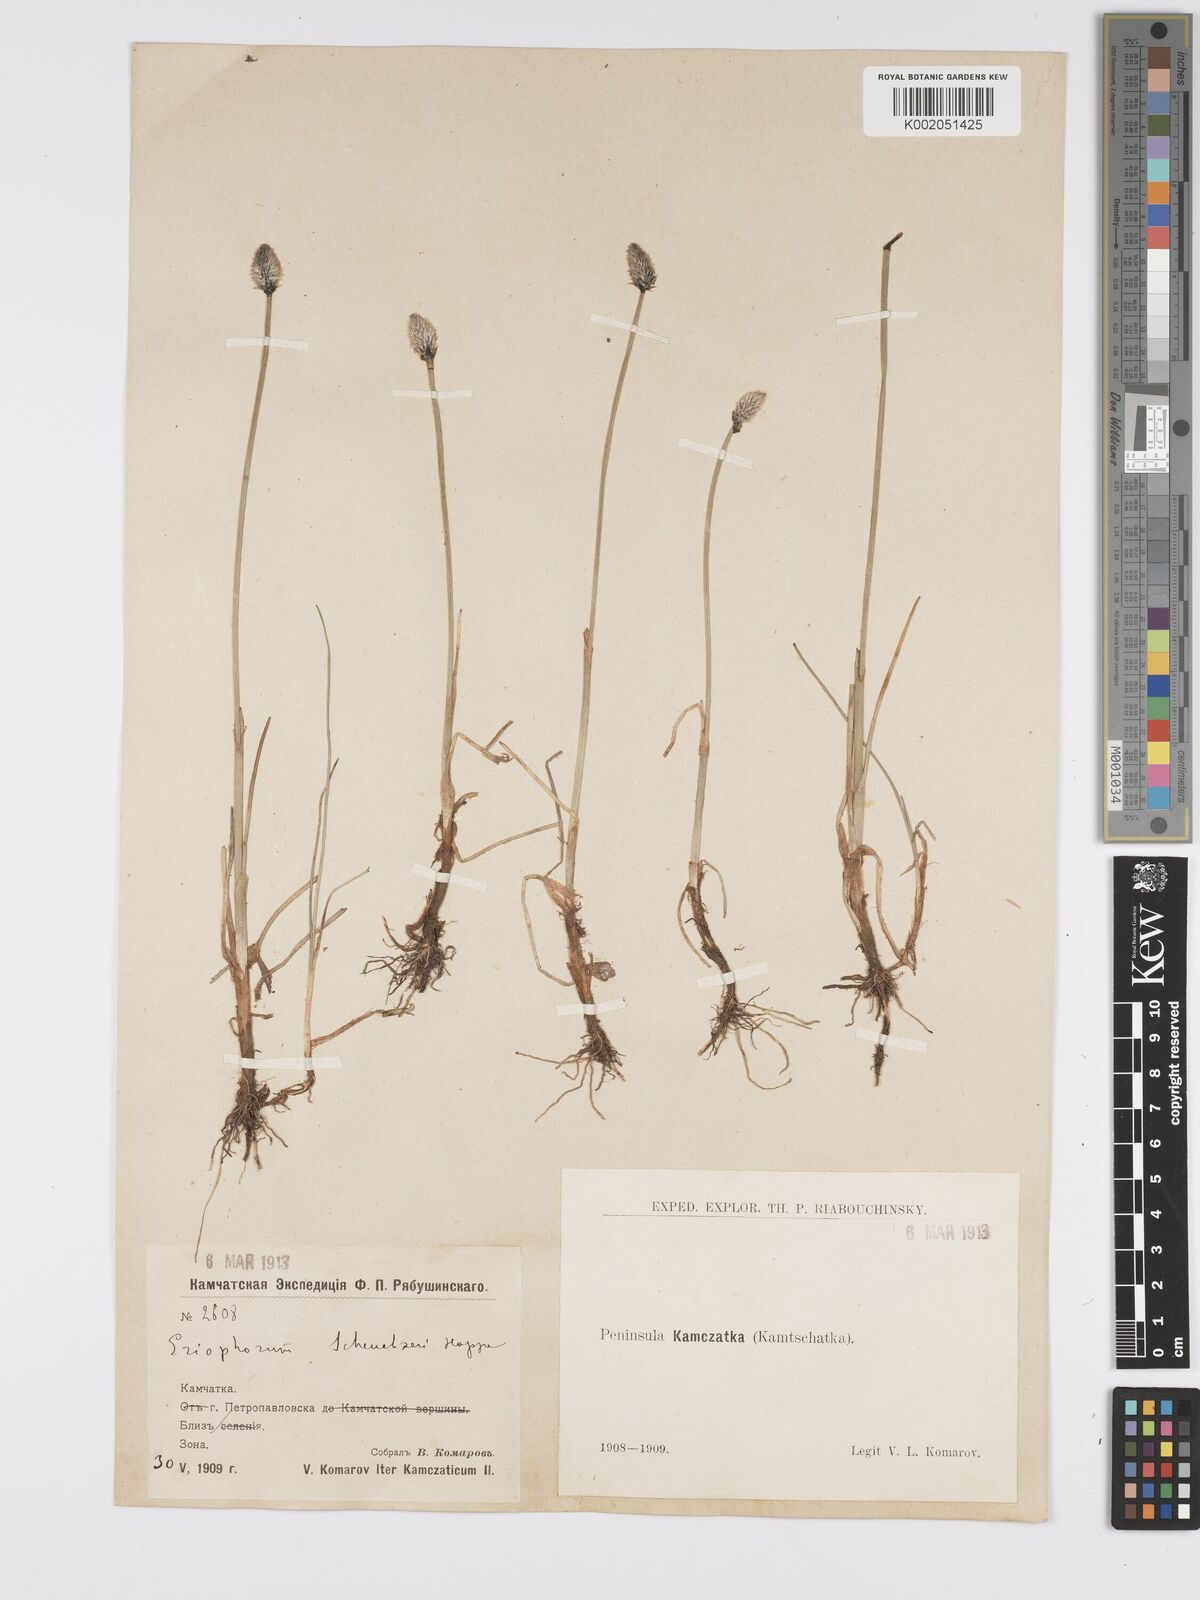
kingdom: Plantae
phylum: Tracheophyta
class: Liliopsida
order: Poales
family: Cyperaceae
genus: Eriophorum
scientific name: Eriophorum scheuchzeri
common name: Scheuchzer's cottongrass
